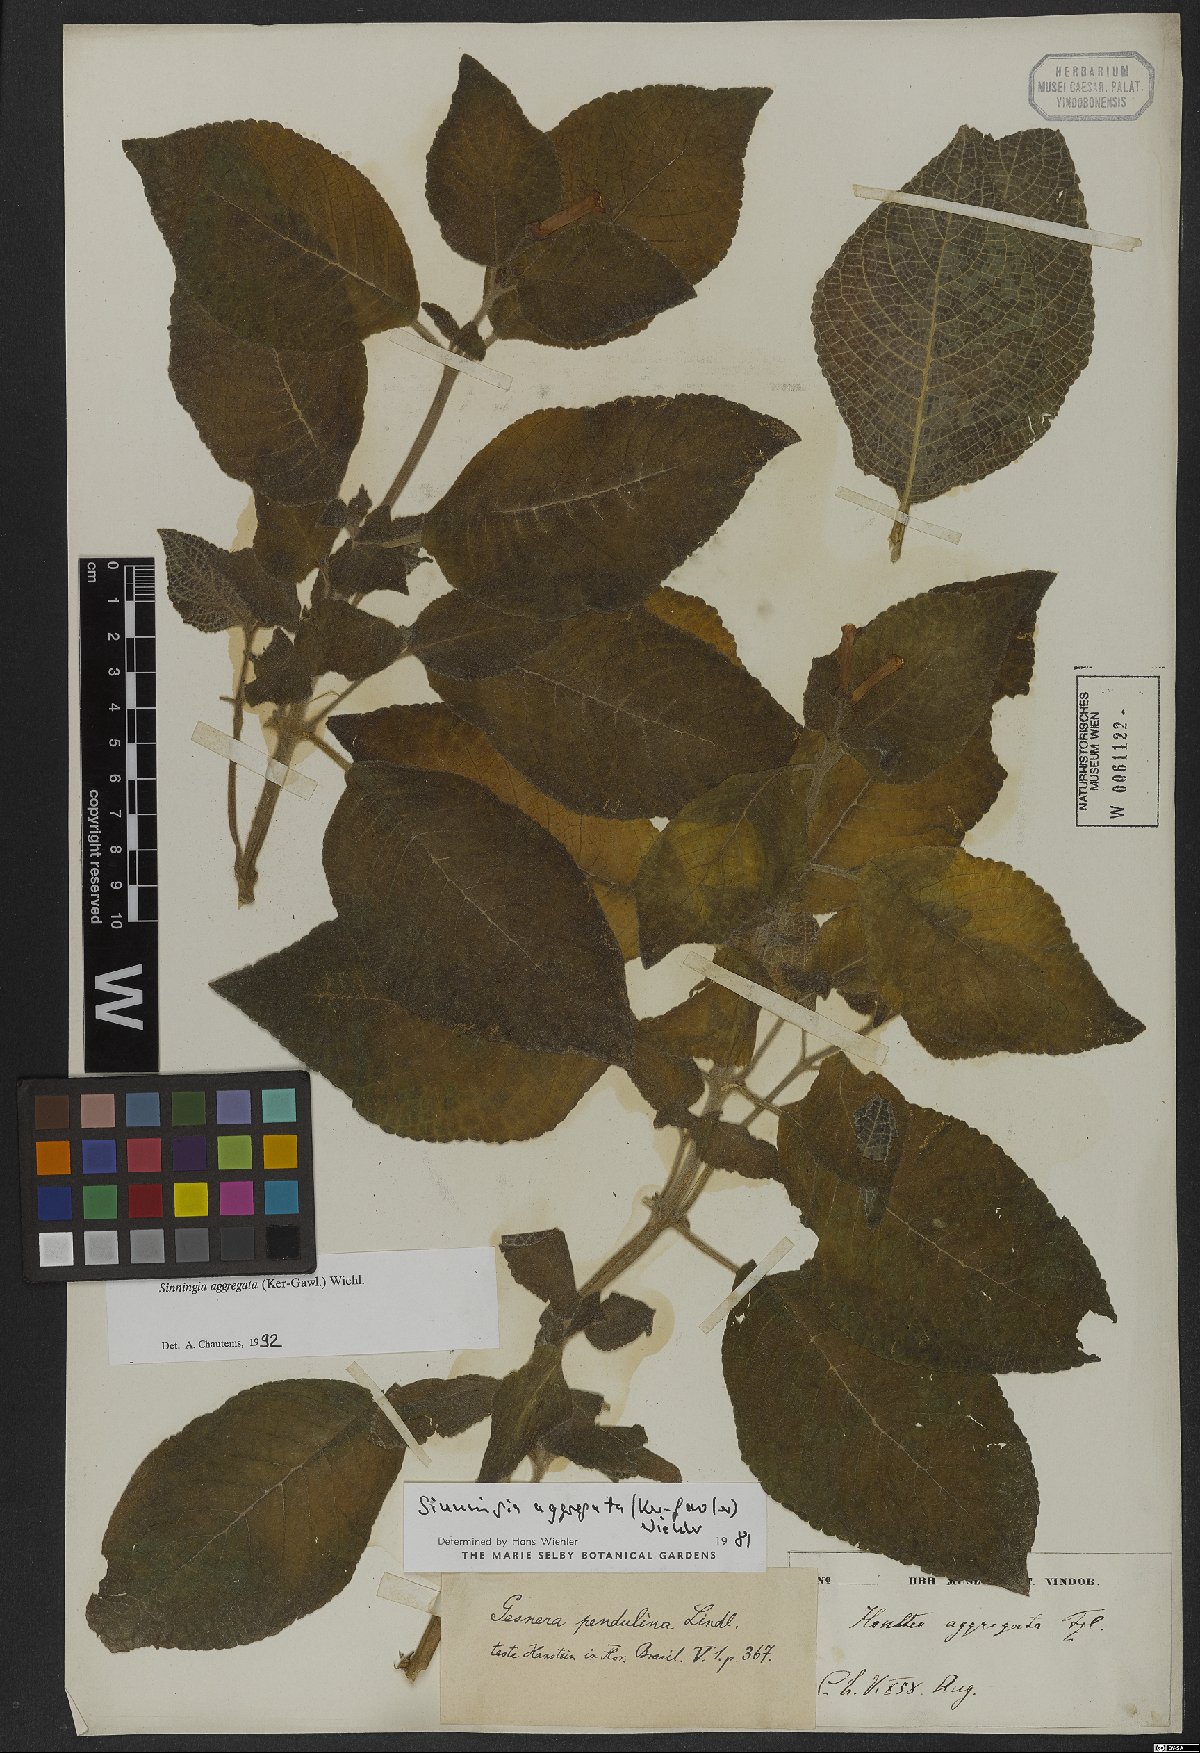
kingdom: Plantae
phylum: Tracheophyta
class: Magnoliopsida
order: Lamiales
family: Gesneriaceae
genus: Sinningia
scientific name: Sinningia aggregata
